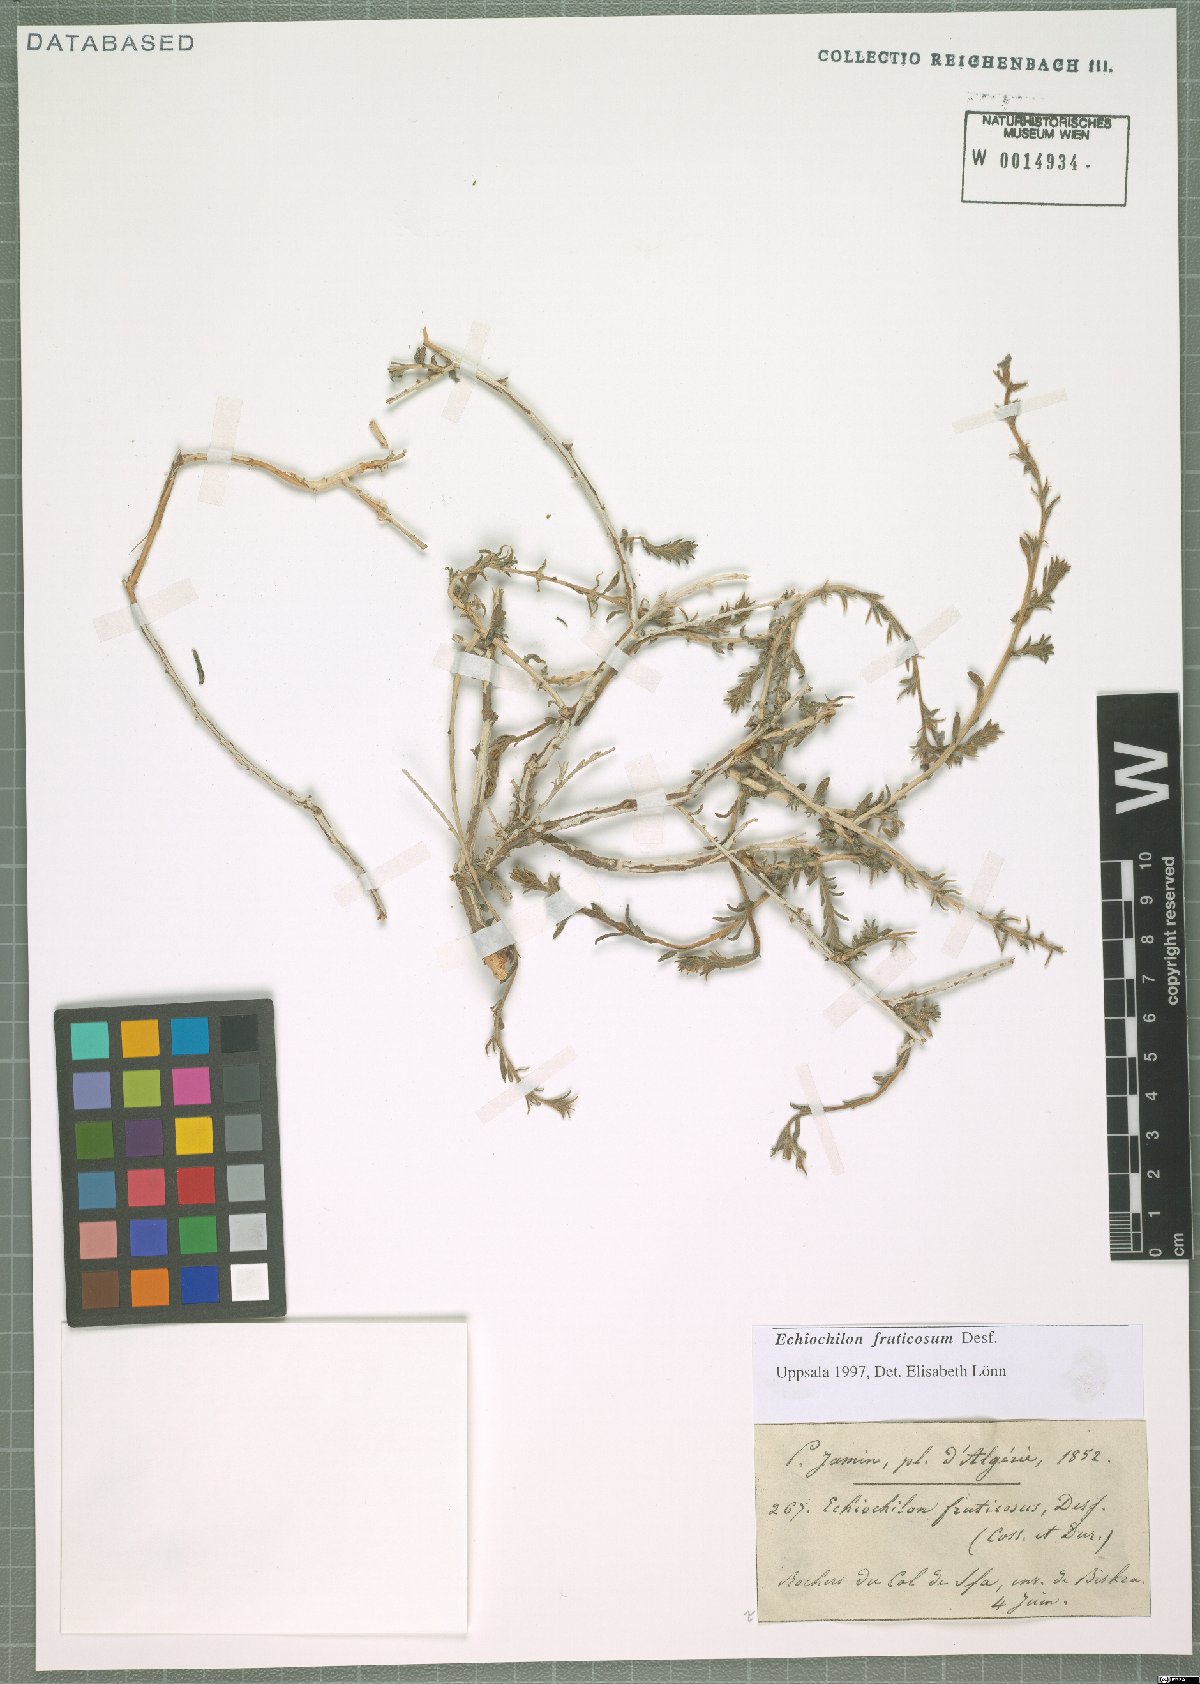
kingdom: Plantae
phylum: Tracheophyta
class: Magnoliopsida
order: Boraginales
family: Boraginaceae
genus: Echiochilon
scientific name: Echiochilon fruticosum
